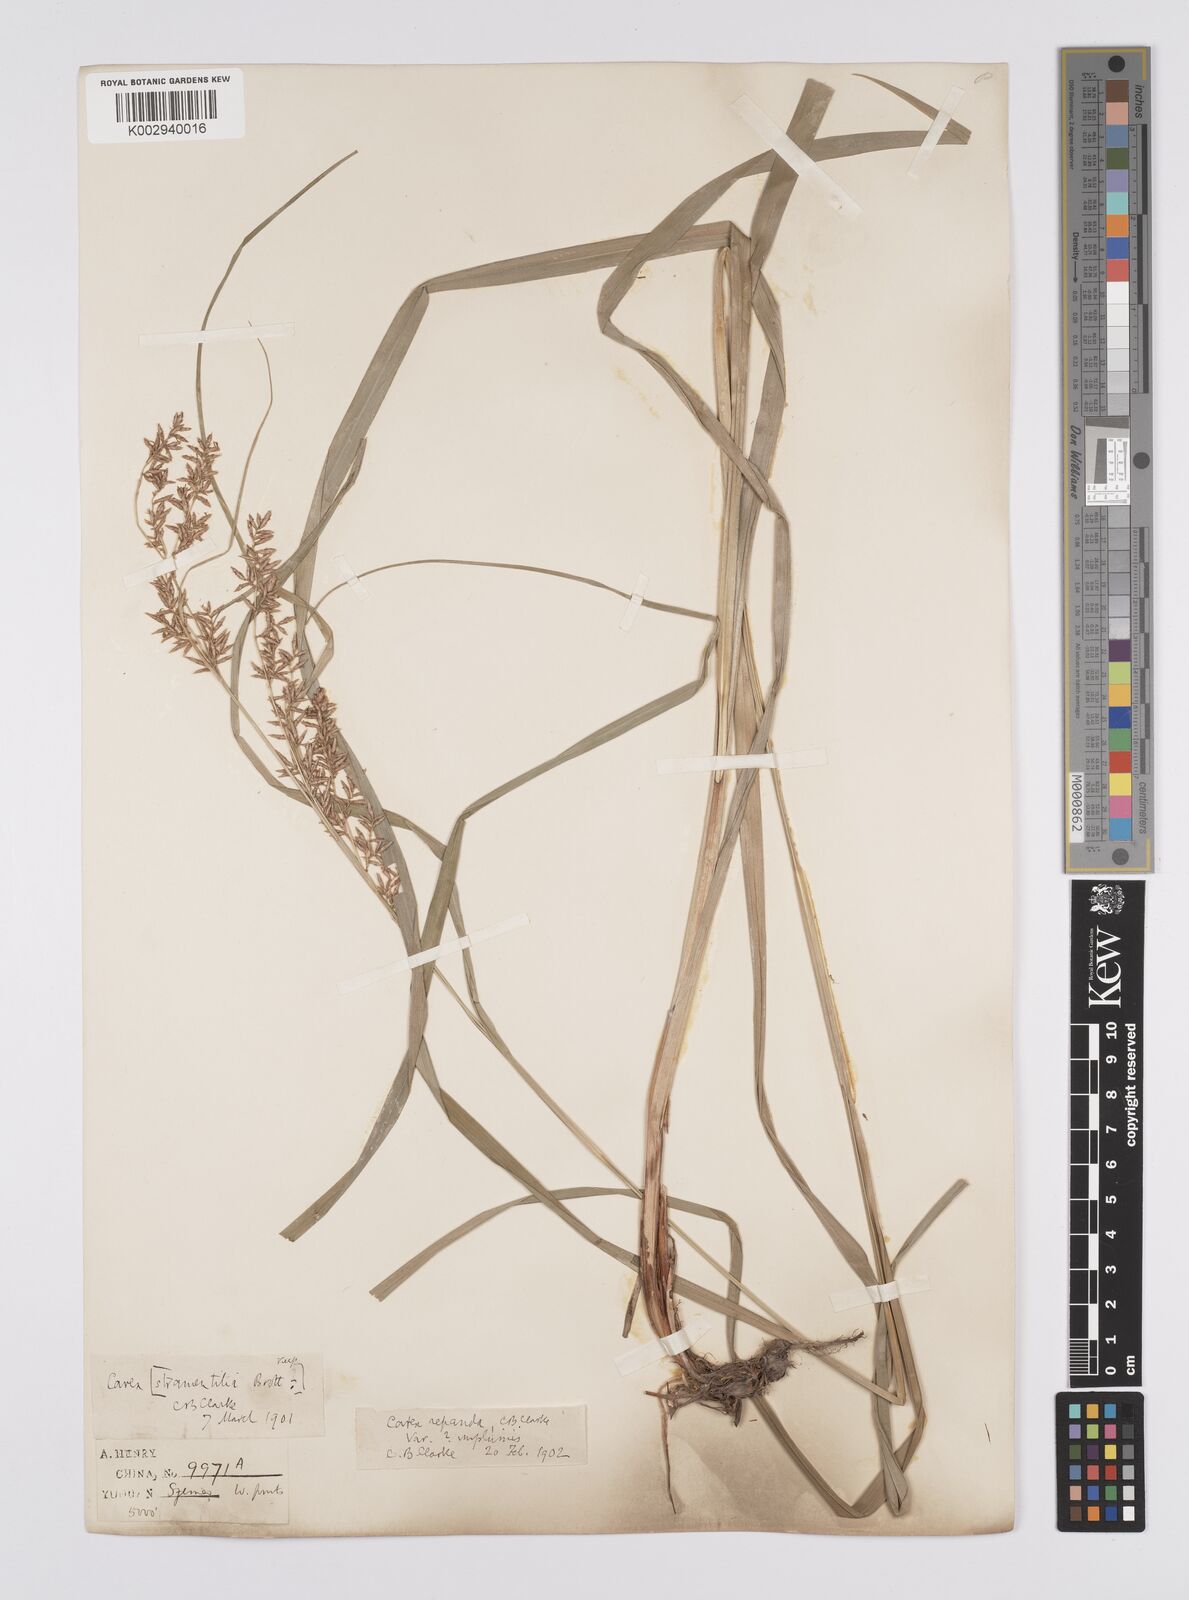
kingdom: Plantae
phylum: Tracheophyta
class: Liliopsida
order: Poales
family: Cyperaceae
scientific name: Cyperaceae
